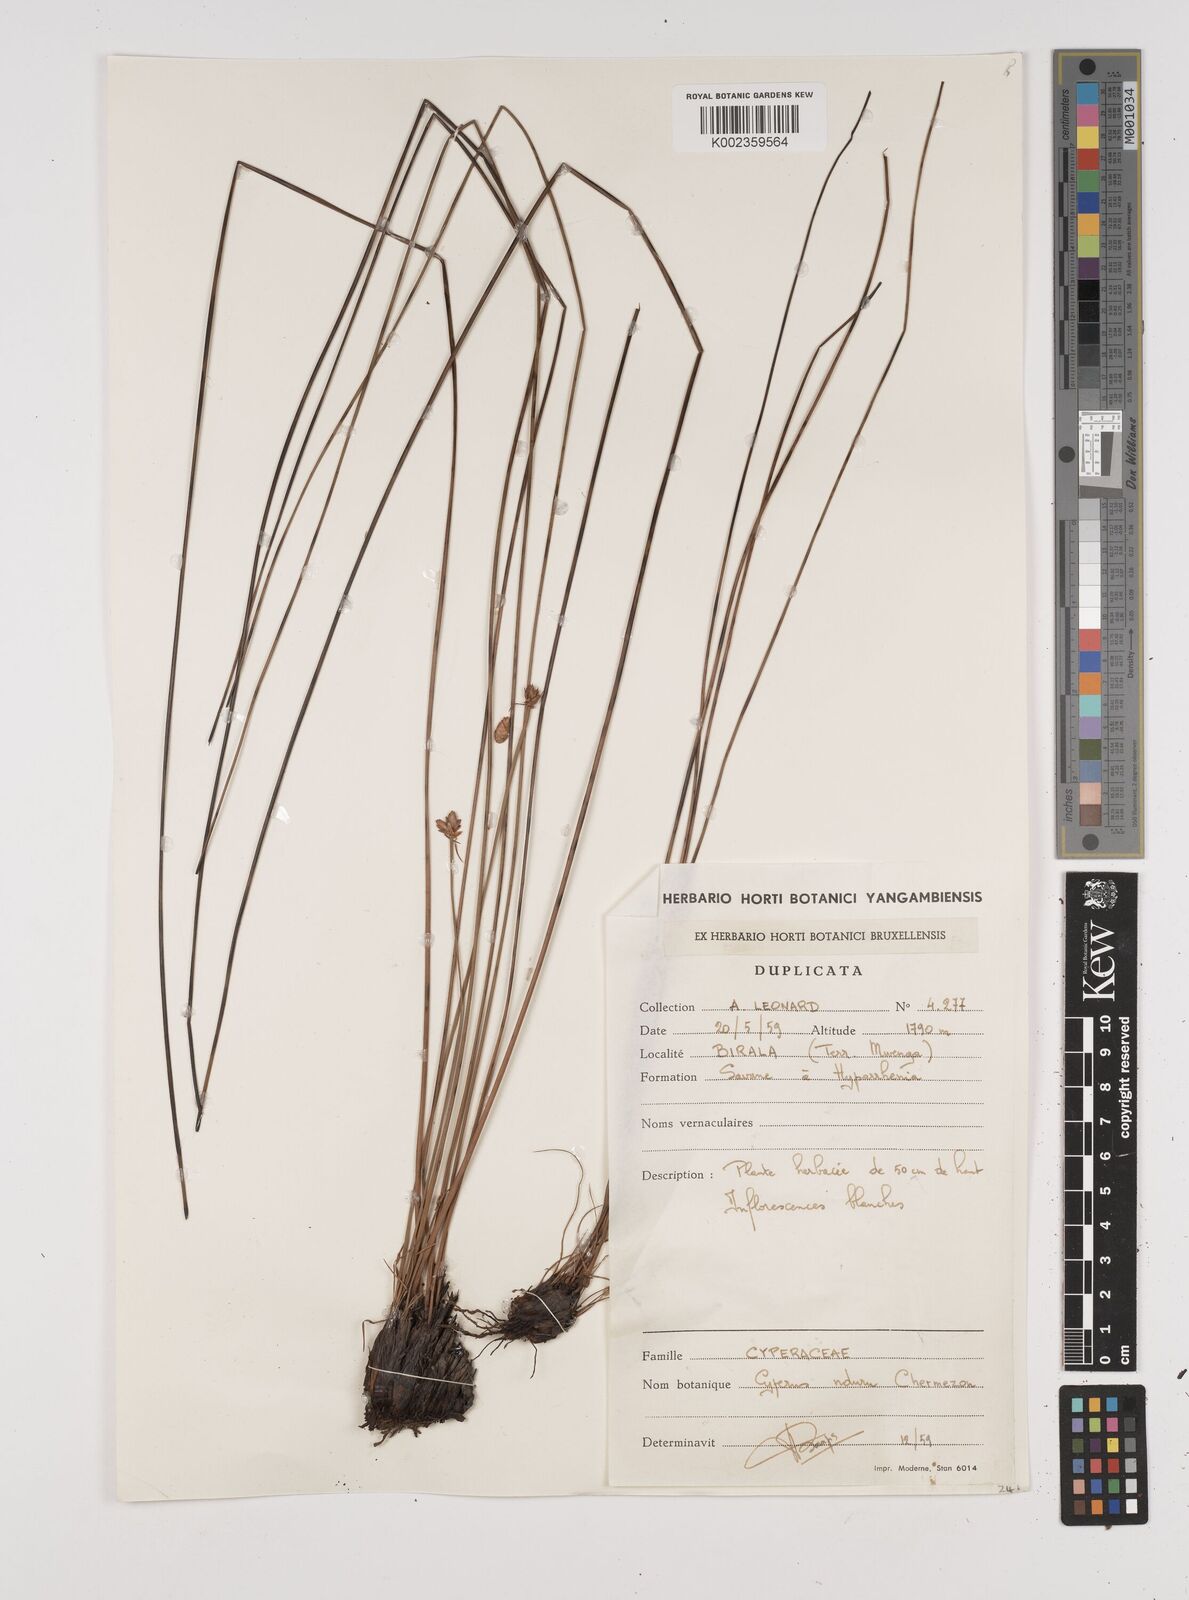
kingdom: Plantae
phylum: Tracheophyta
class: Liliopsida
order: Poales
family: Cyperaceae
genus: Cyperus
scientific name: Cyperus nduru
